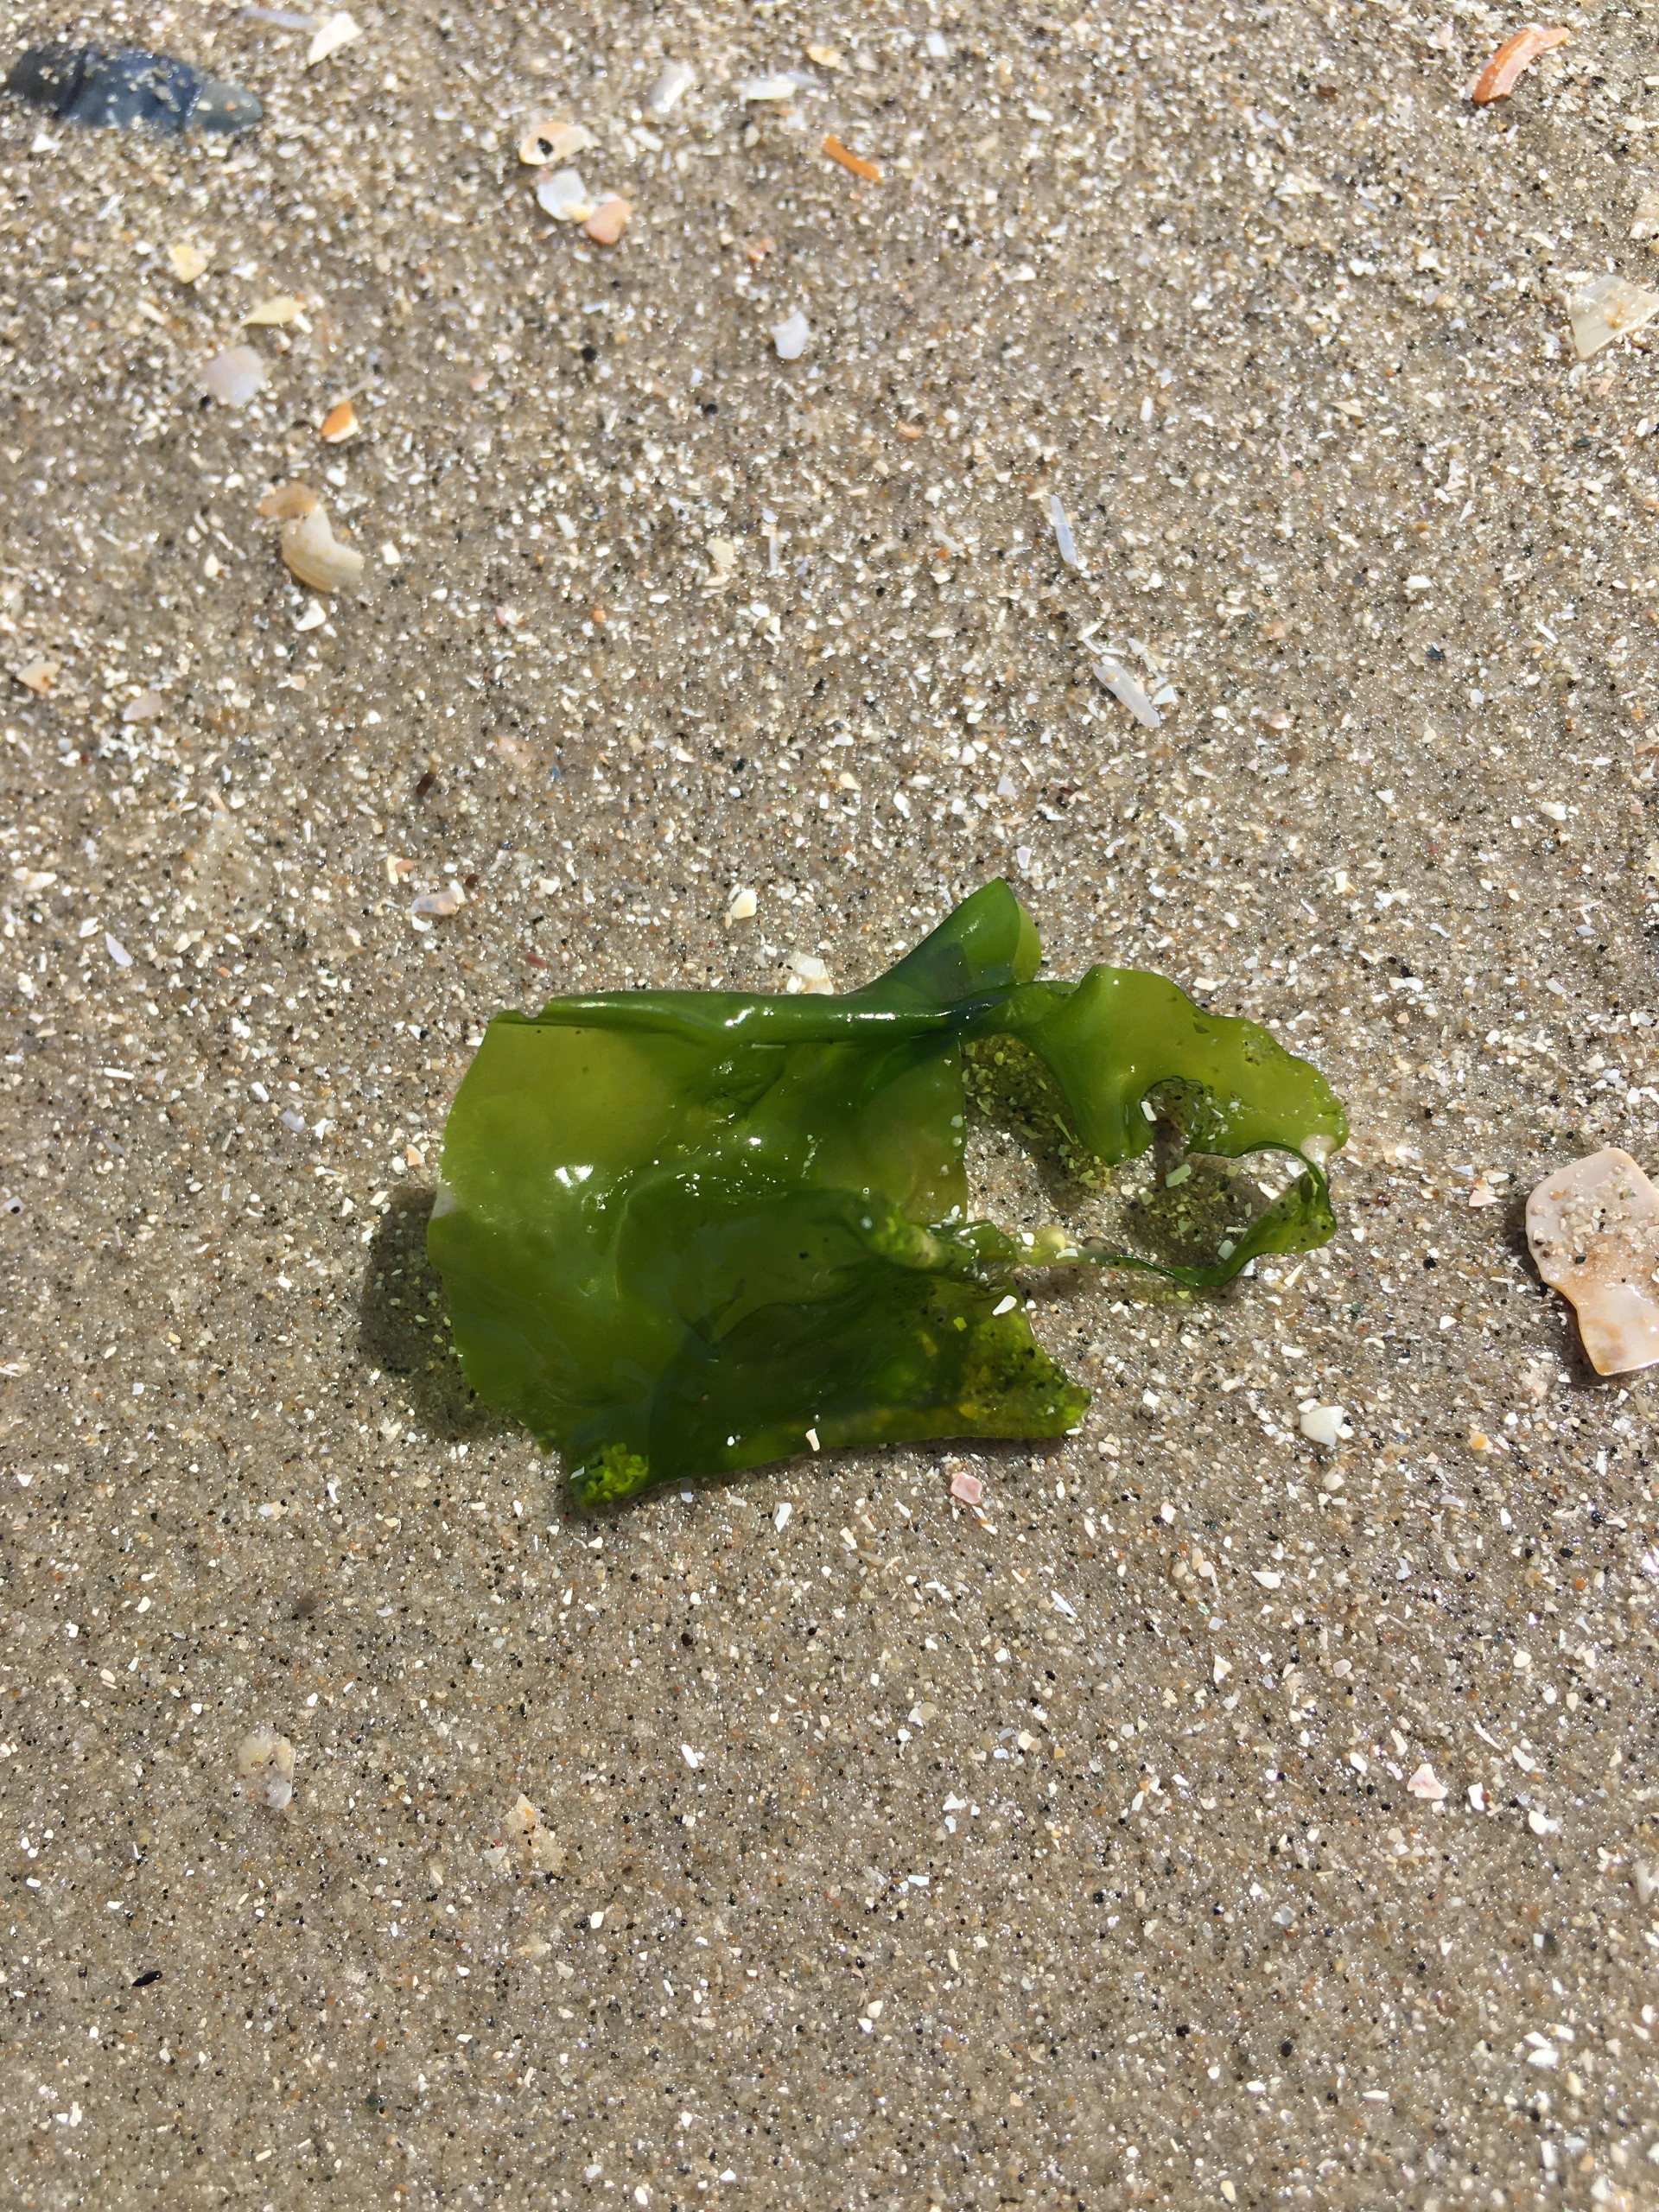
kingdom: Plantae
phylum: Chlorophyta
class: Ulvophyceae
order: Ulvales
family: Ulvaceae
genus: Ulva
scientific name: Ulva fenestrata
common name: Søsalat
